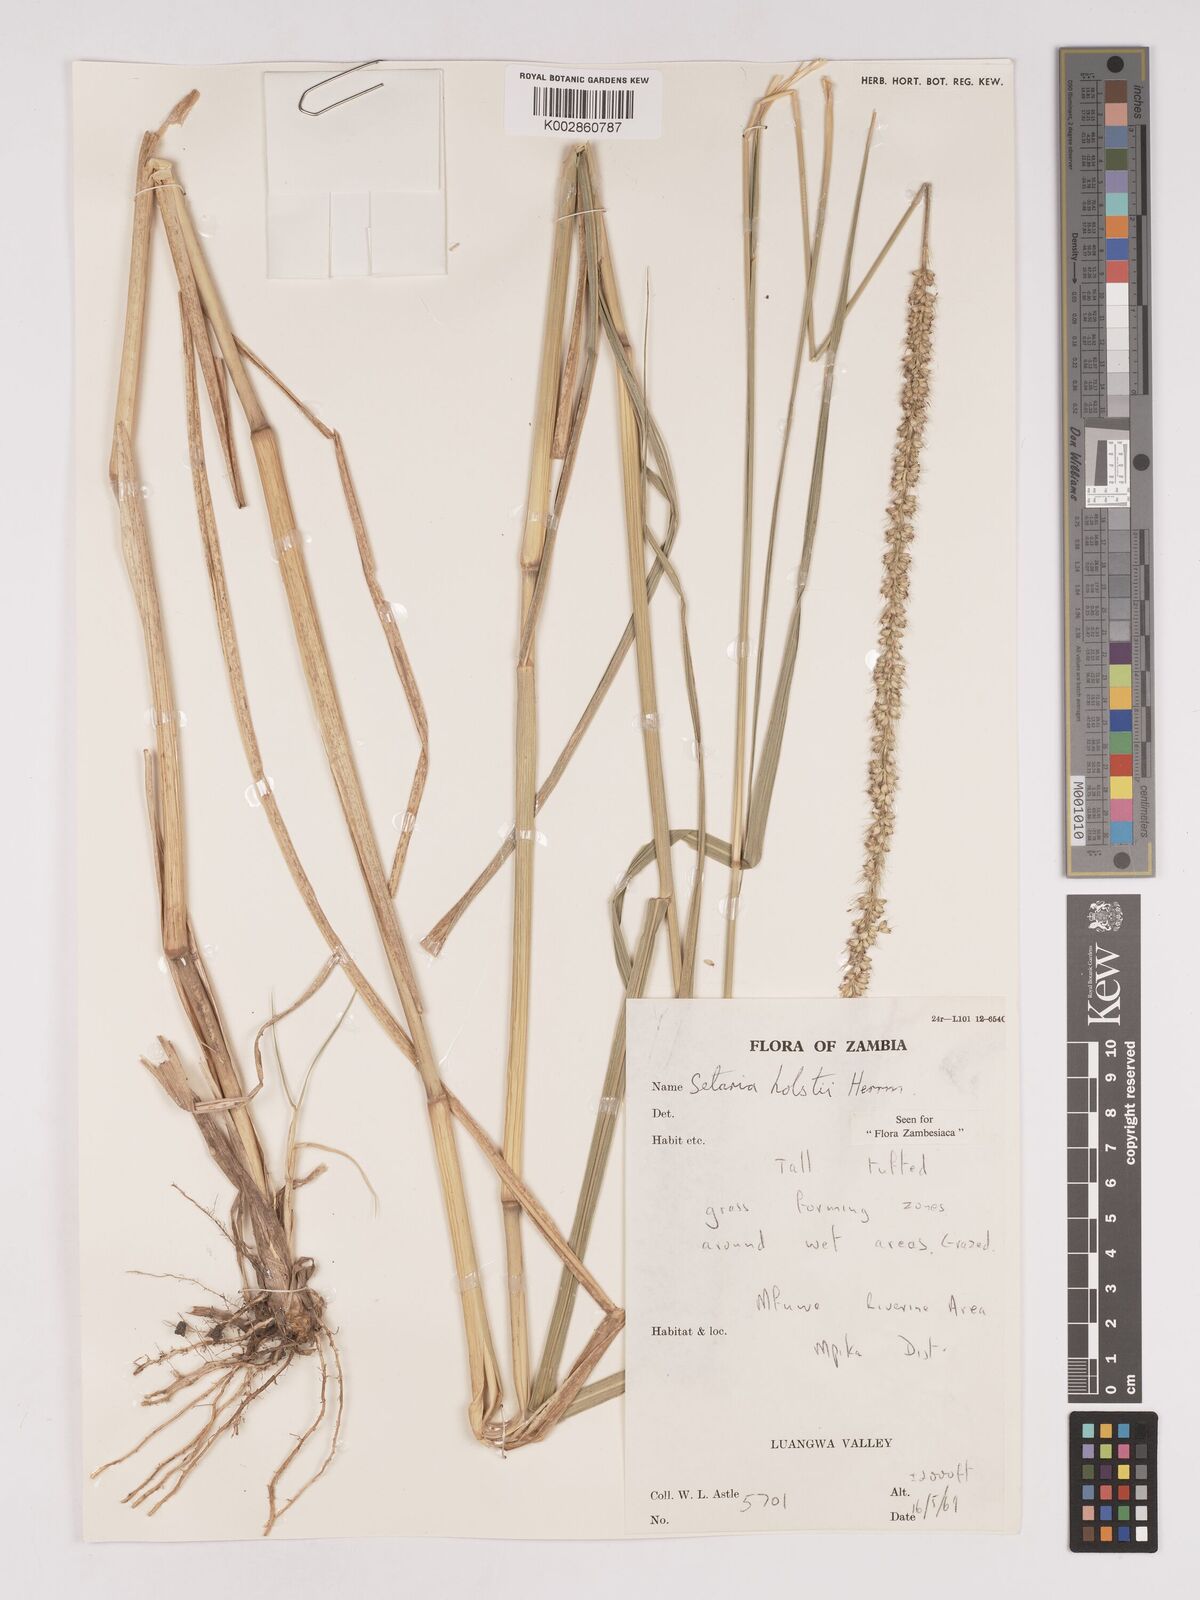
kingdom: Plantae
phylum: Tracheophyta
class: Liliopsida
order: Poales
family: Poaceae
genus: Setaria
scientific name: Setaria incrassata
